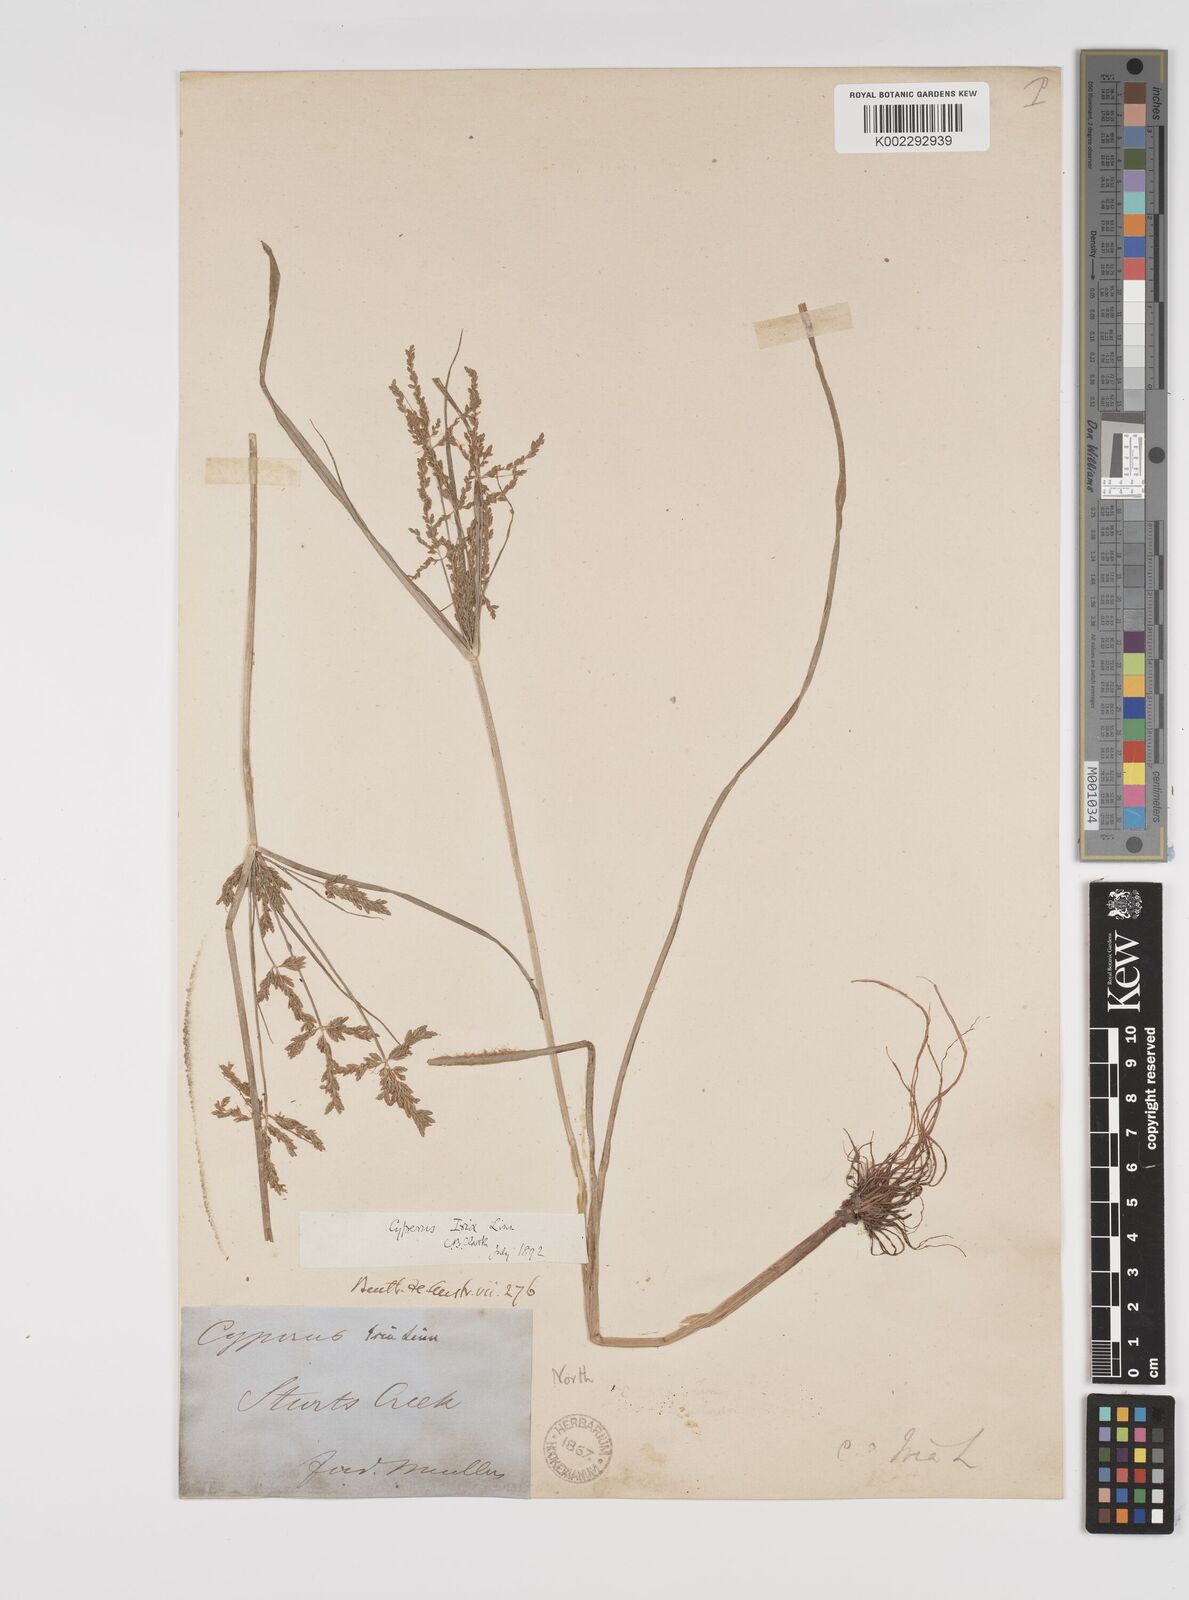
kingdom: Plantae
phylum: Tracheophyta
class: Liliopsida
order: Poales
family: Cyperaceae
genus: Cyperus
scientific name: Cyperus iria
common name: Ricefield flatsedge
